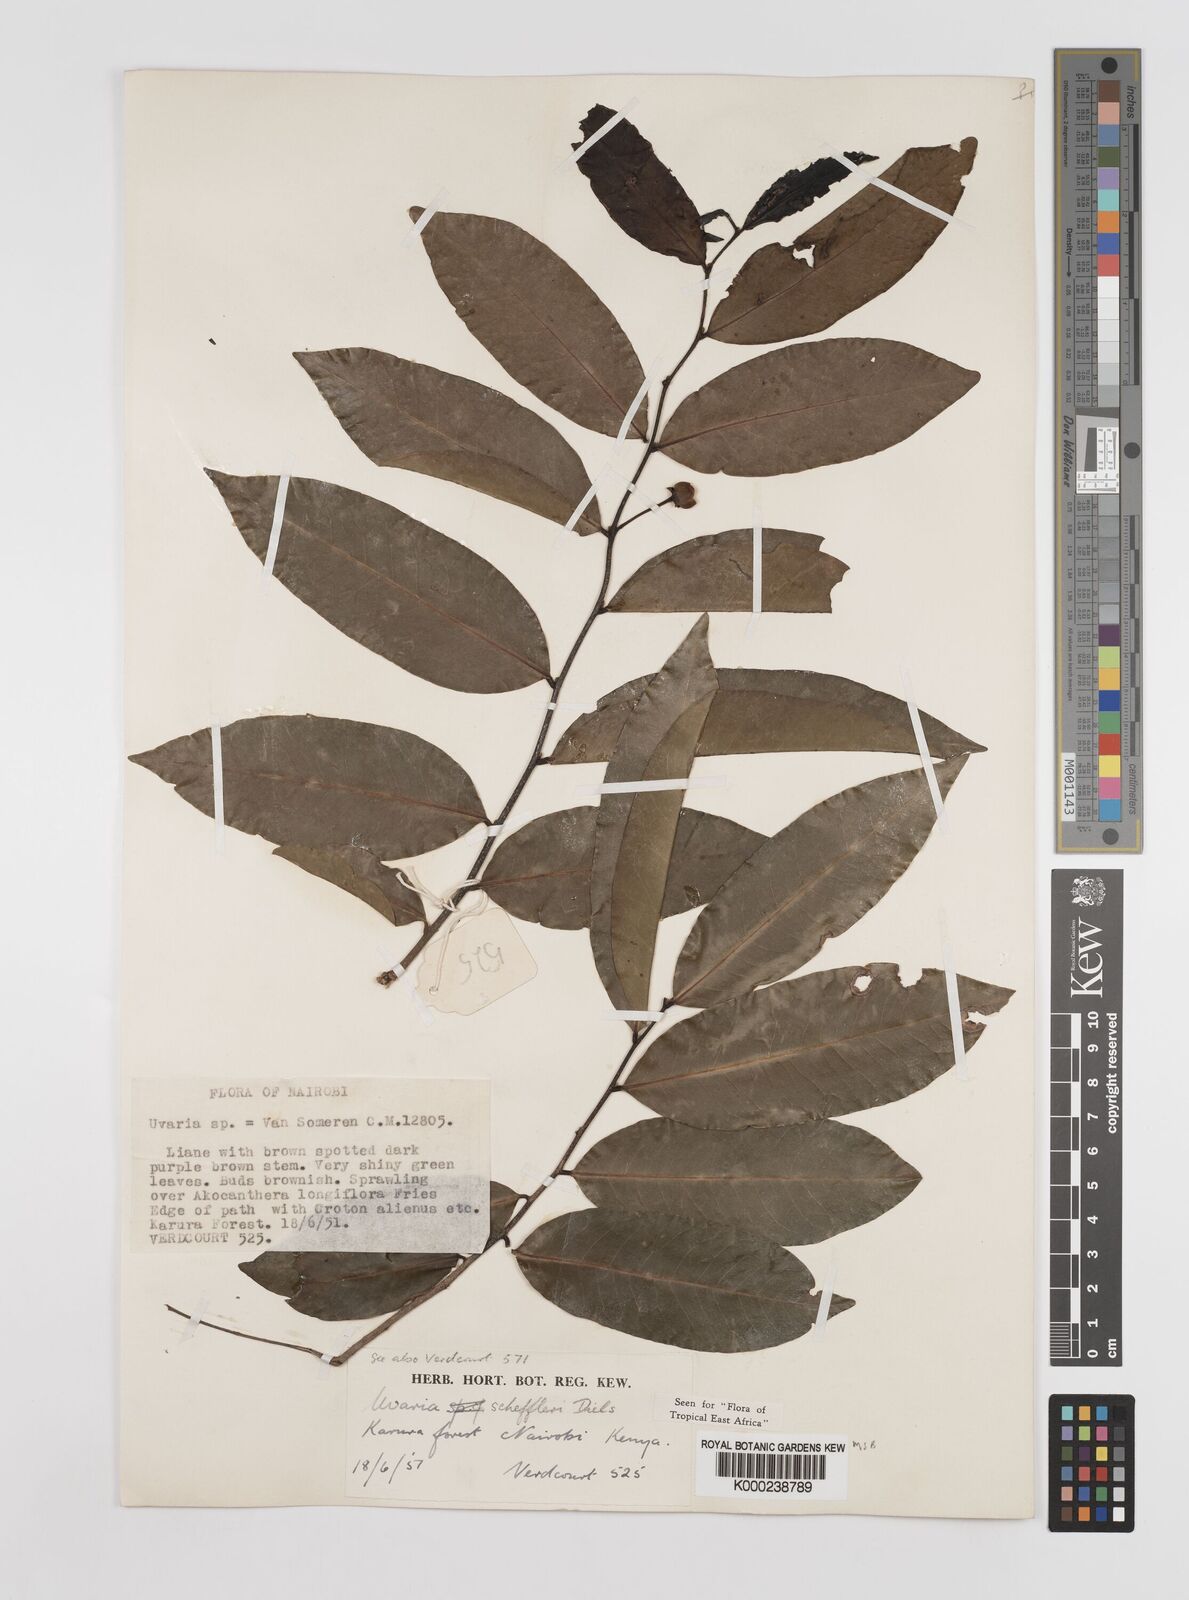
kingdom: Plantae
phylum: Tracheophyta
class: Magnoliopsida
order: Magnoliales
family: Annonaceae
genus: Uvaria
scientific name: Uvaria scheffleri
